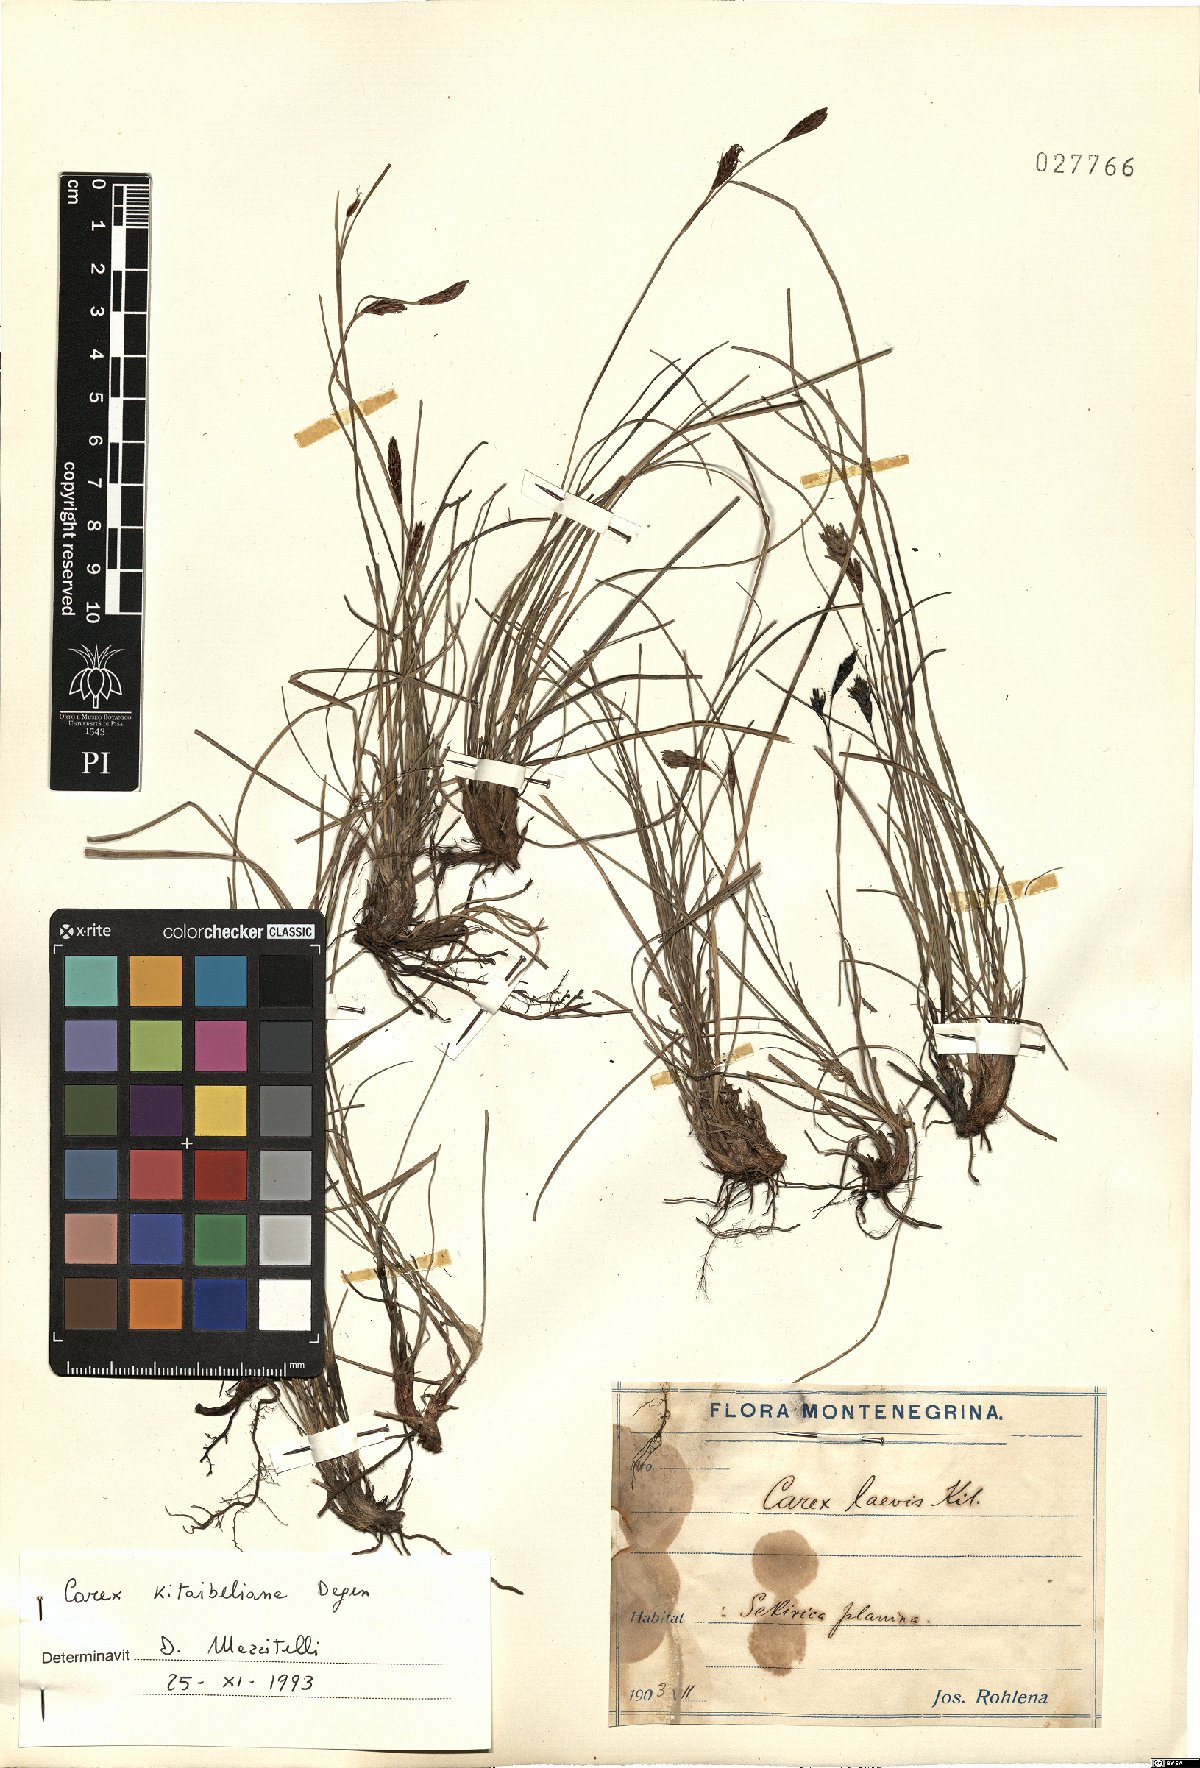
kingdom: Plantae
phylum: Tracheophyta
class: Liliopsida
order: Poales
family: Cyperaceae
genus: Carex
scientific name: Carex kitaibeliana
